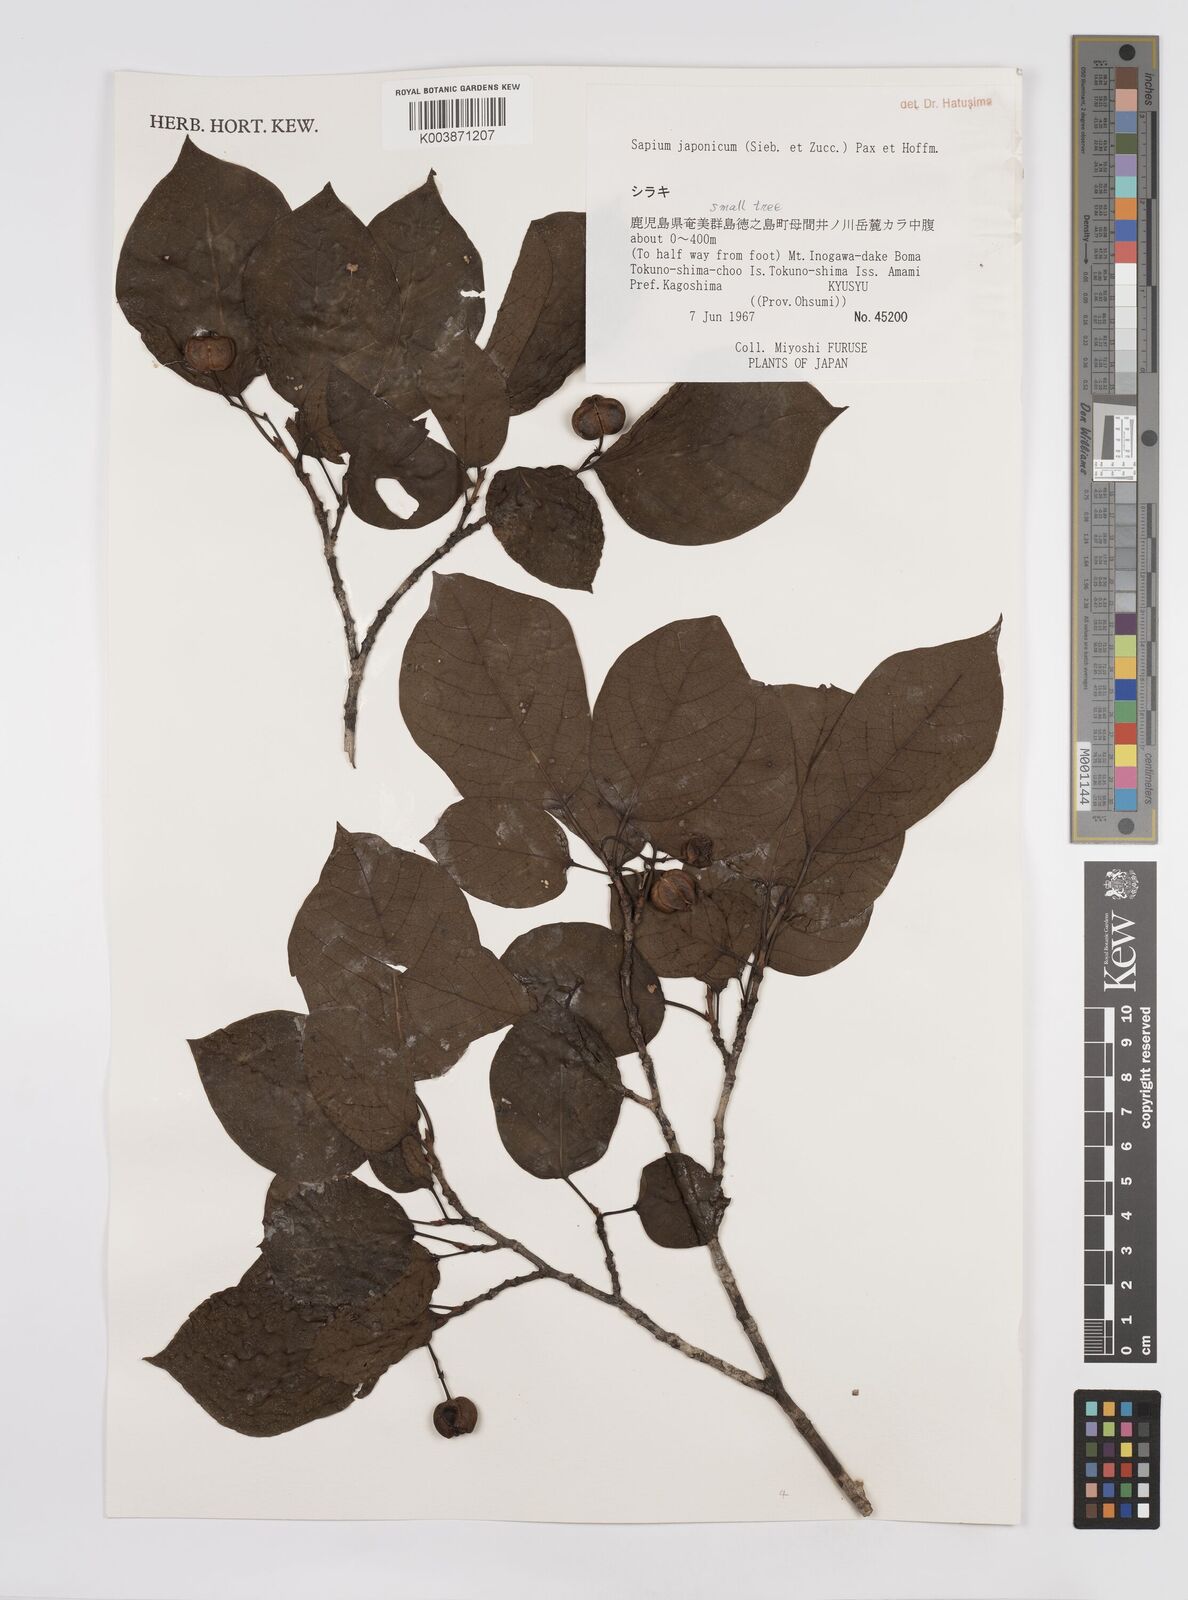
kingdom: Plantae
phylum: Tracheophyta
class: Magnoliopsida
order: Malpighiales
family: Euphorbiaceae
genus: Neoshirakia
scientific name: Neoshirakia japonica
